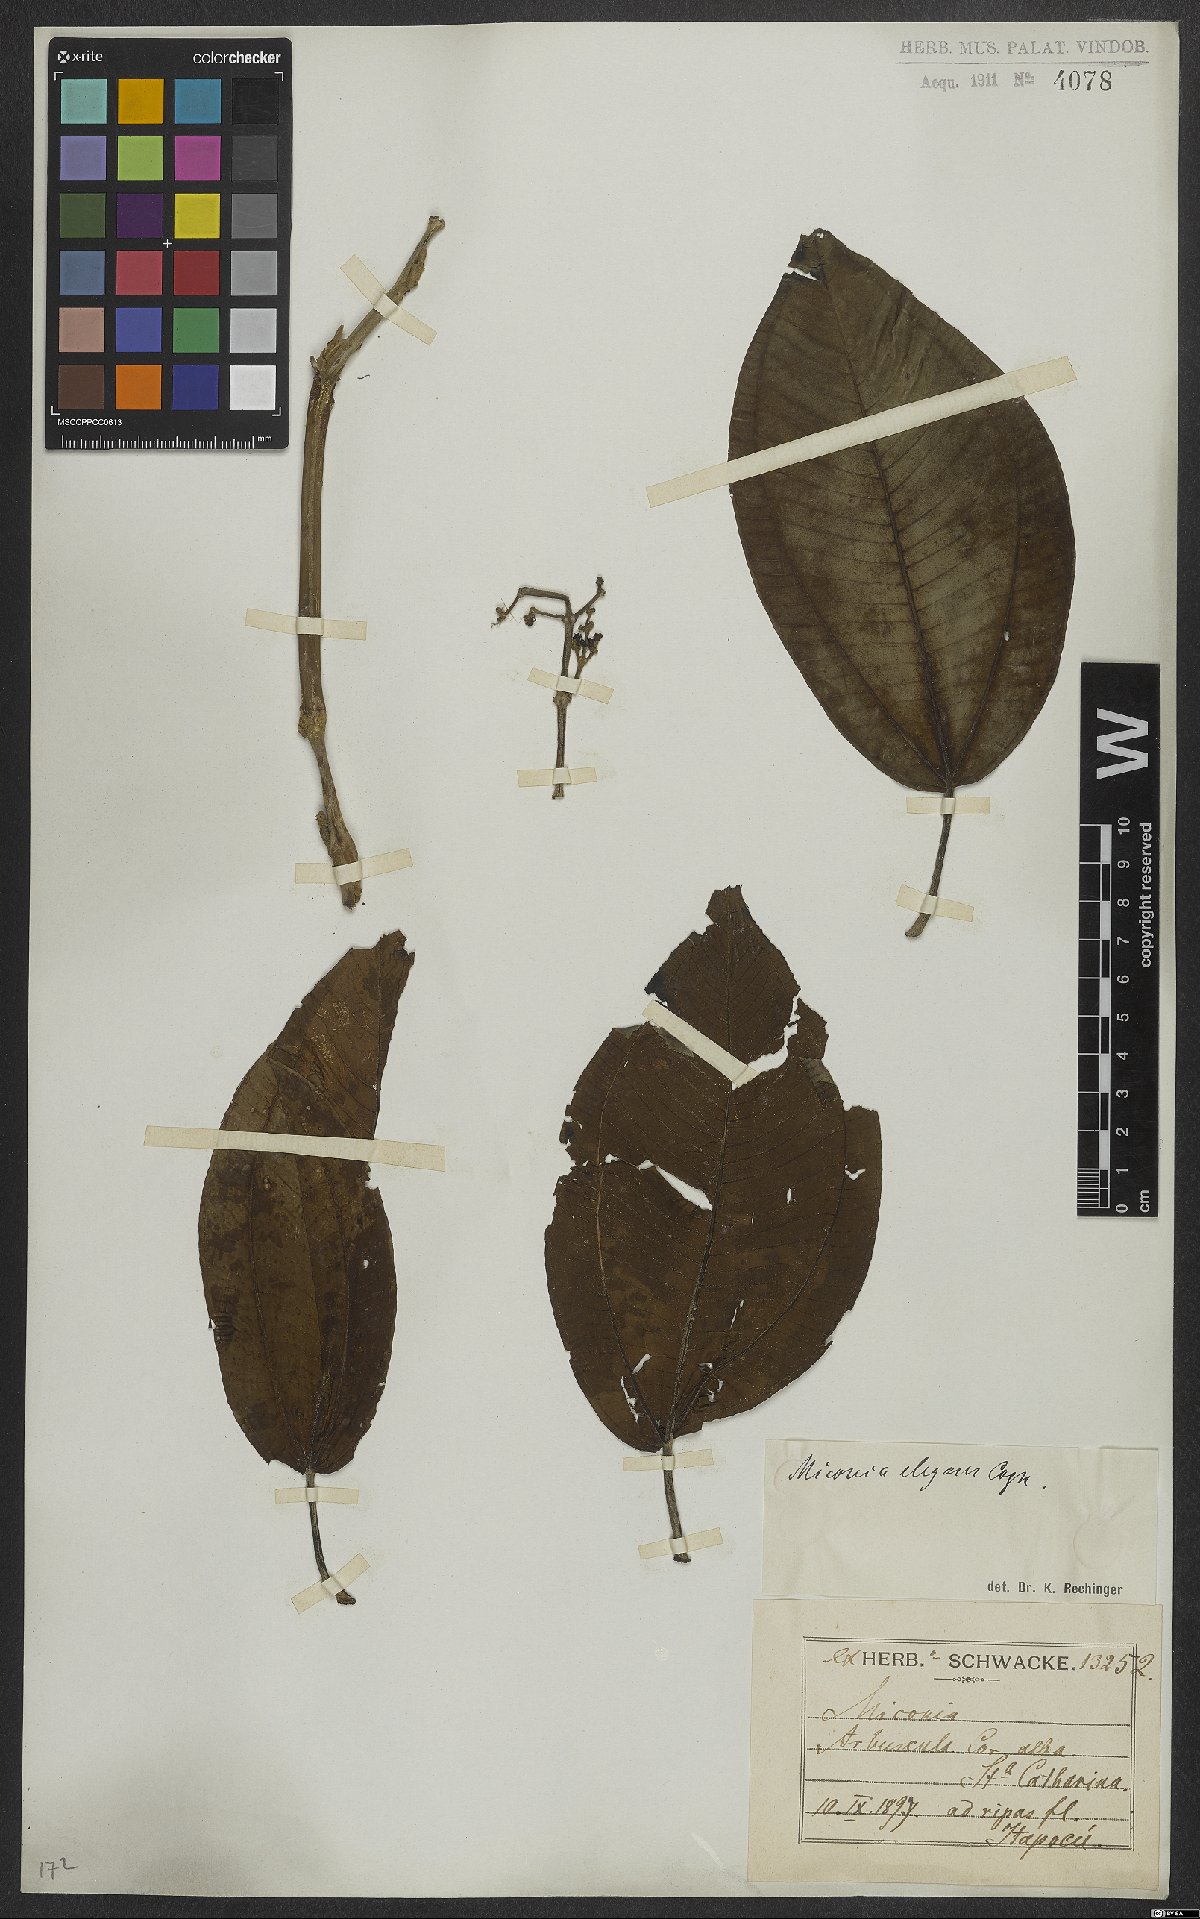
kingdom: Plantae
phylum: Tracheophyta
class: Magnoliopsida
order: Myrtales
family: Melastomataceae
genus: Miconia
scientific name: Miconia elegans
